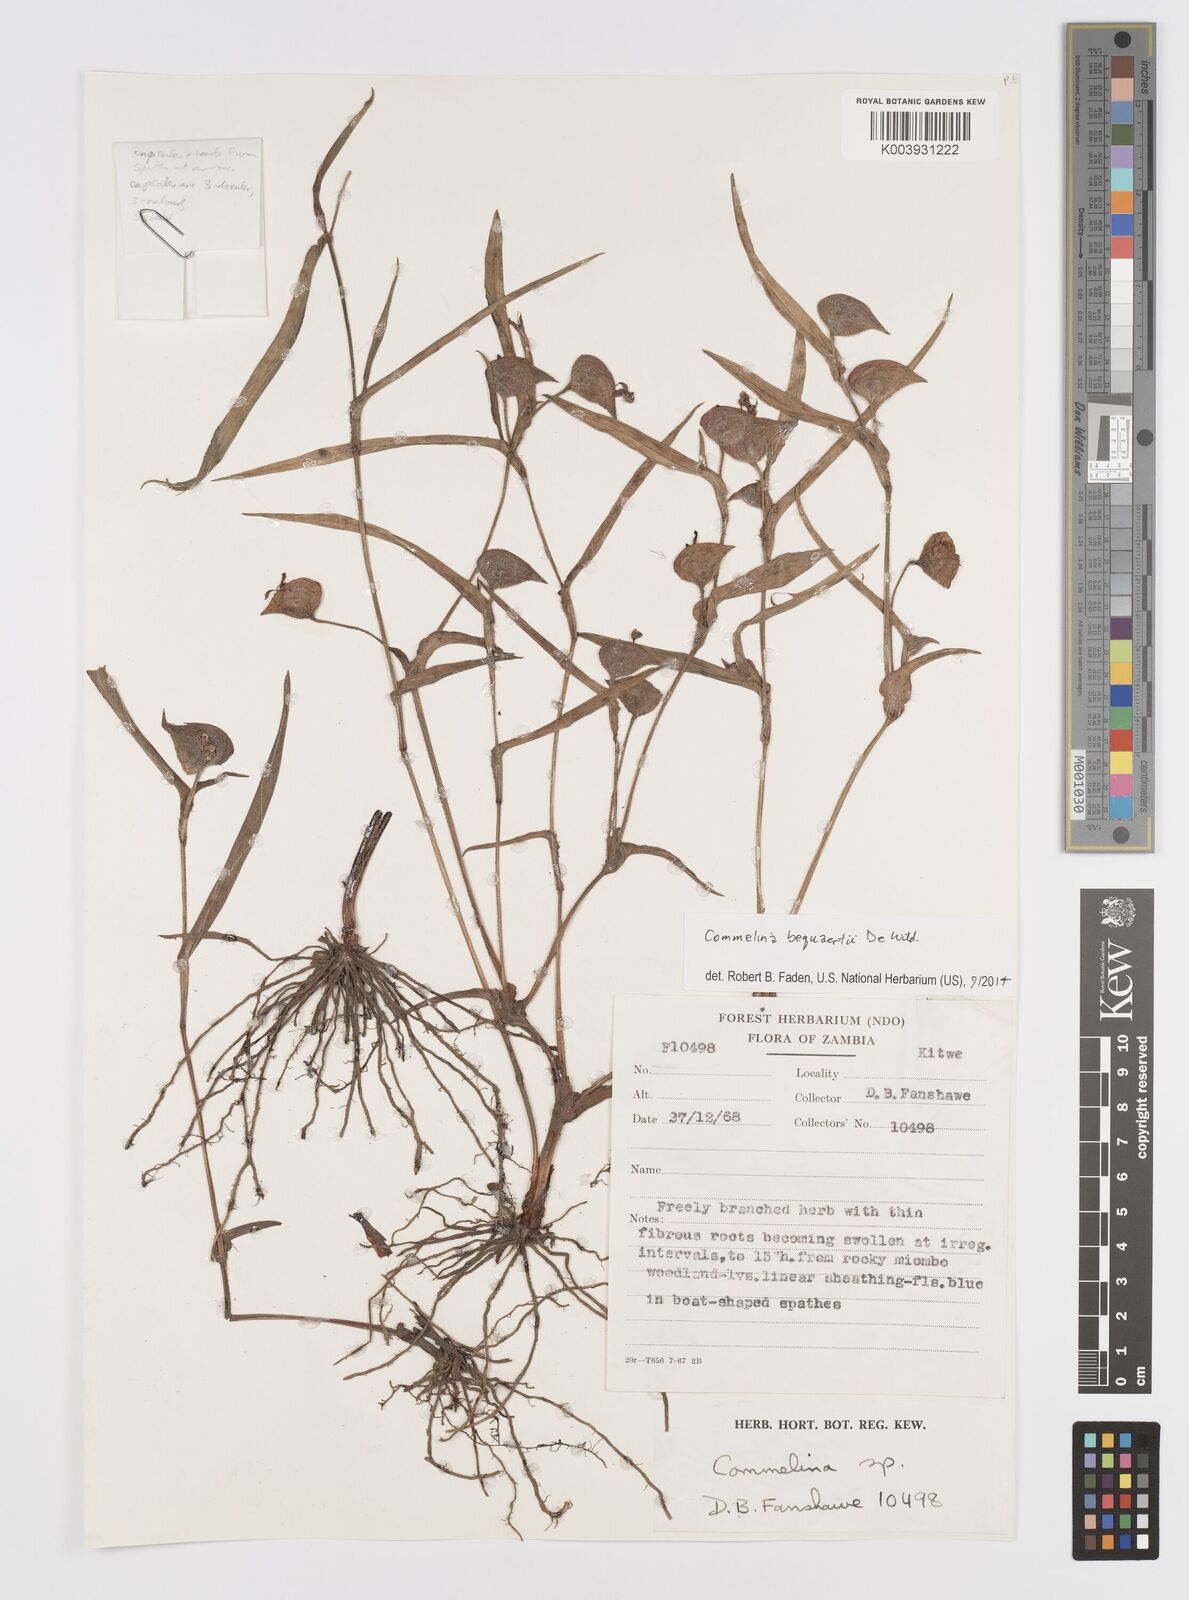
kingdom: Plantae
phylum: Tracheophyta
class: Liliopsida
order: Commelinales
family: Commelinaceae
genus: Commelina
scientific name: Commelina bequaertii
